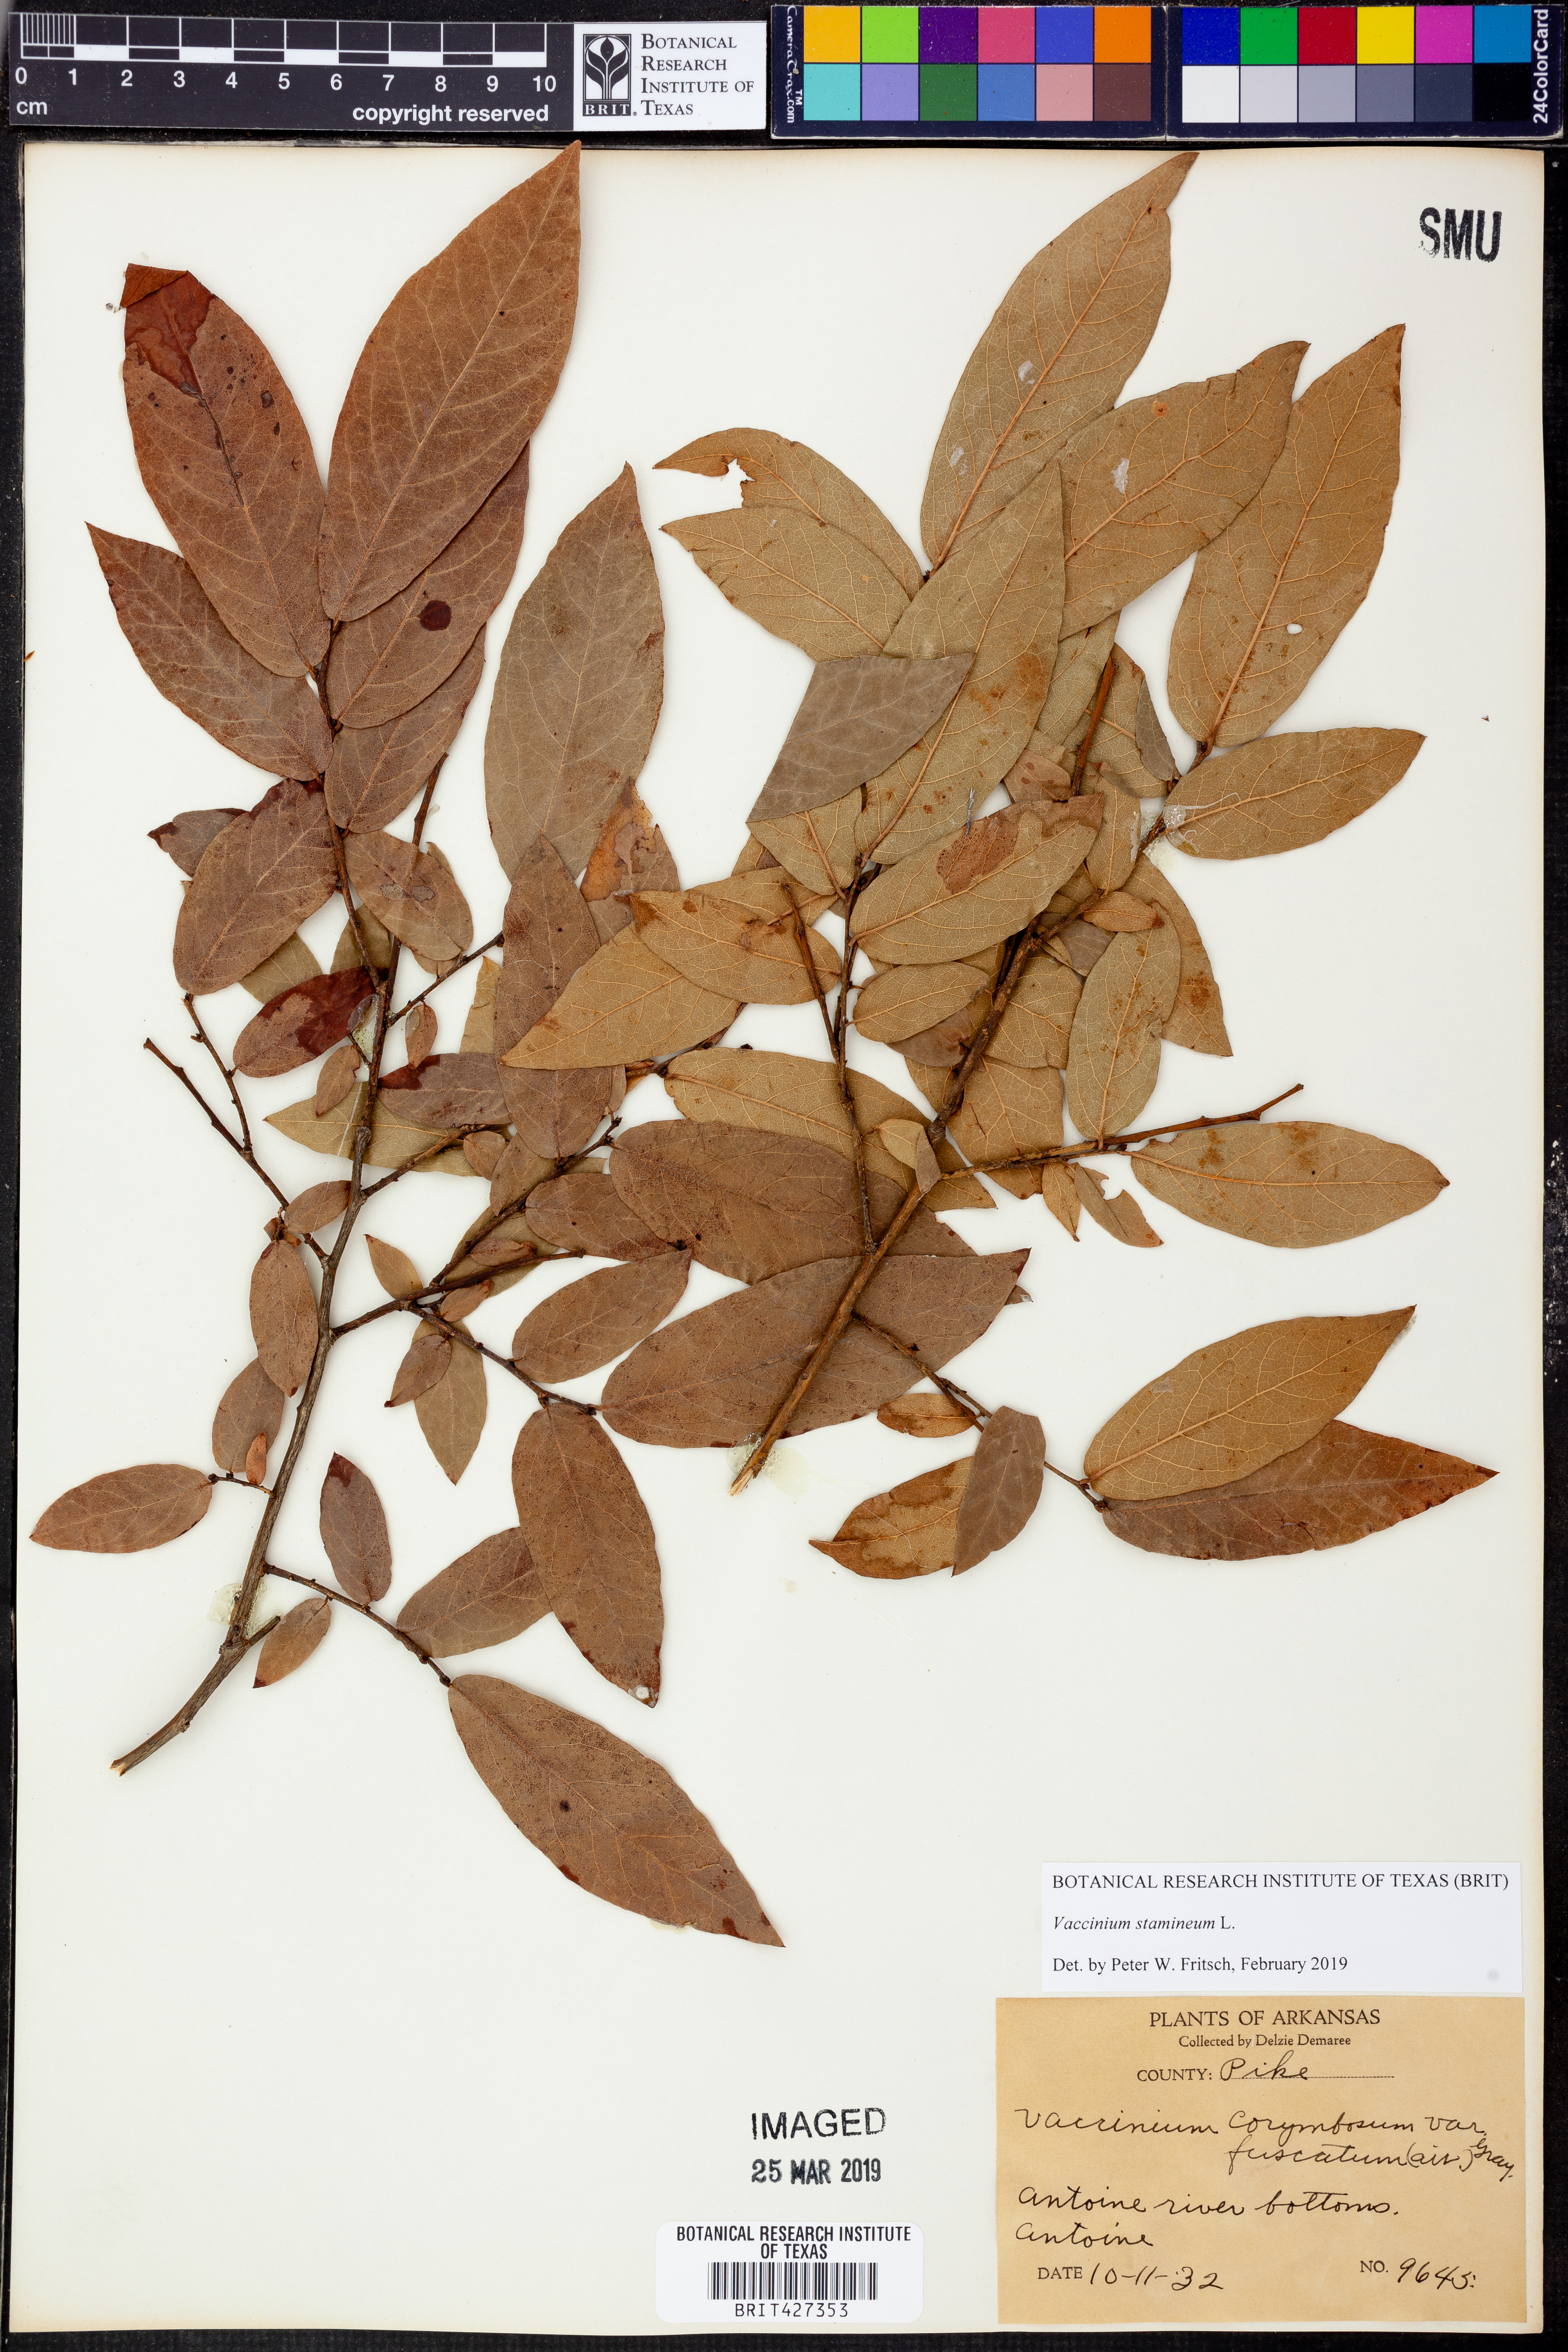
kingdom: Plantae
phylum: Tracheophyta
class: Magnoliopsida
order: Ericales
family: Ericaceae
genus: Vaccinium
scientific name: Vaccinium stamineum
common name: Deerberry
